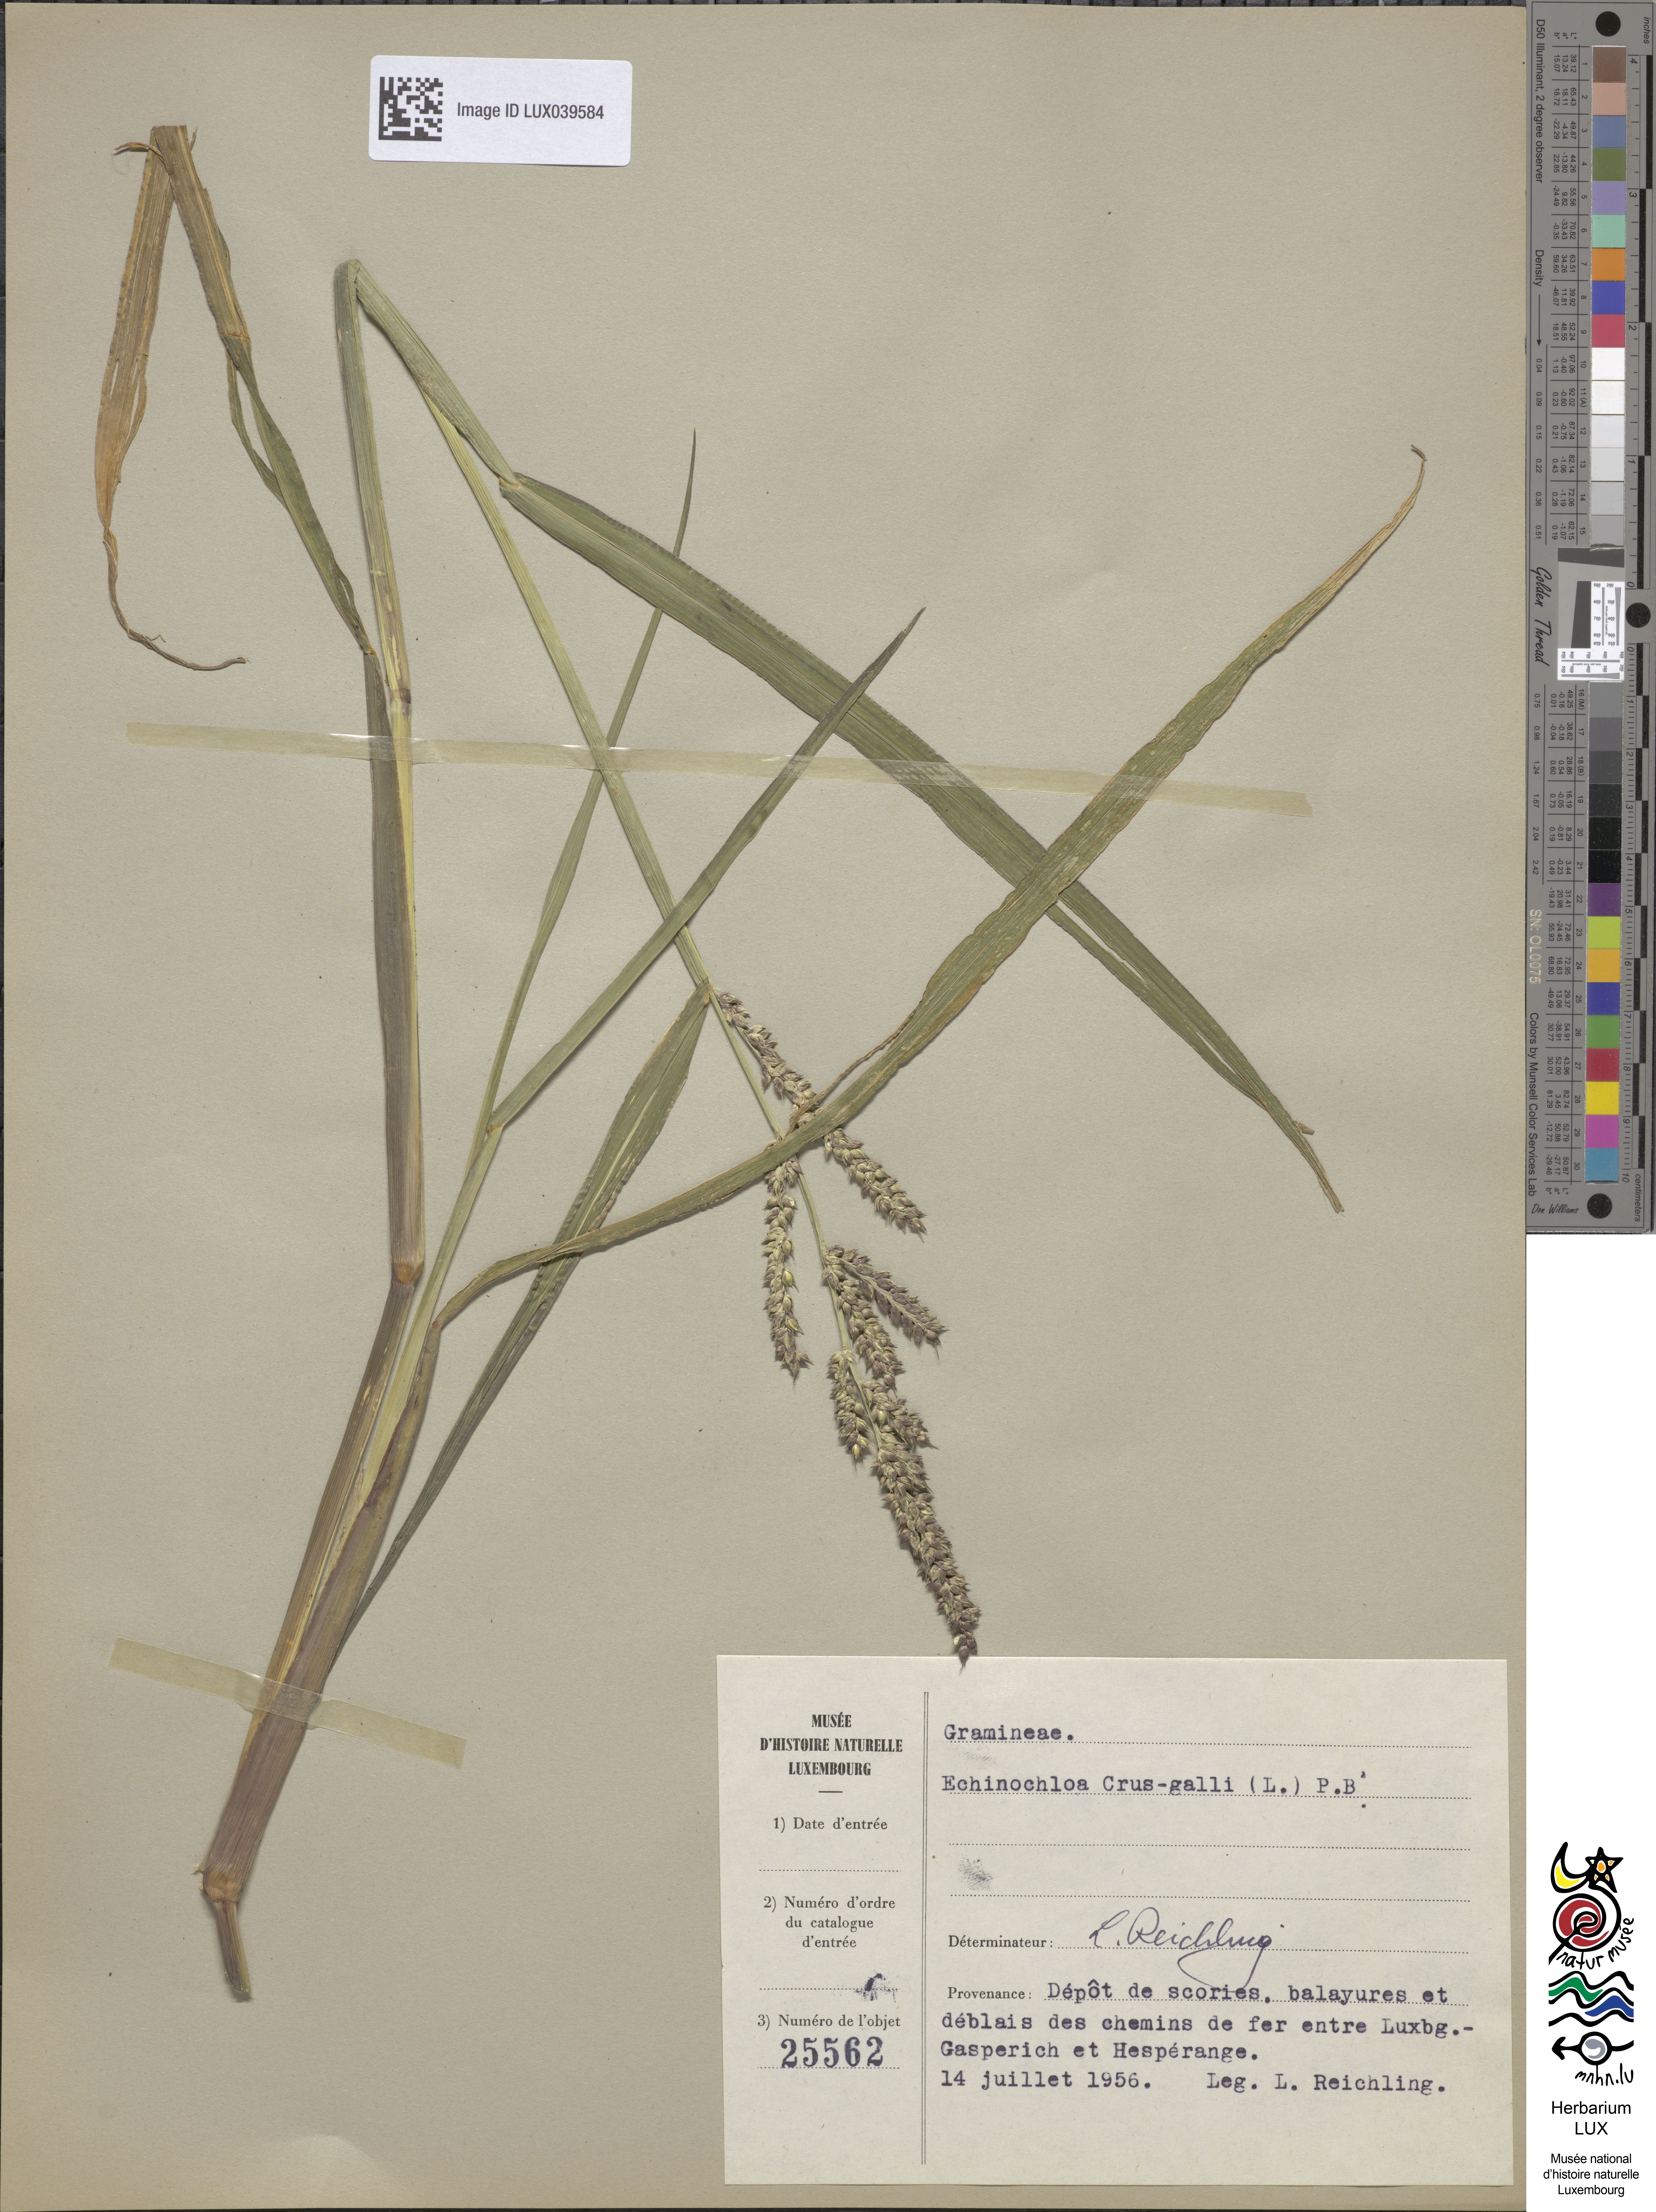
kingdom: Plantae
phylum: Tracheophyta
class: Liliopsida
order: Poales
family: Poaceae
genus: Echinochloa
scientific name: Echinochloa crus-galli
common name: Cockspur
